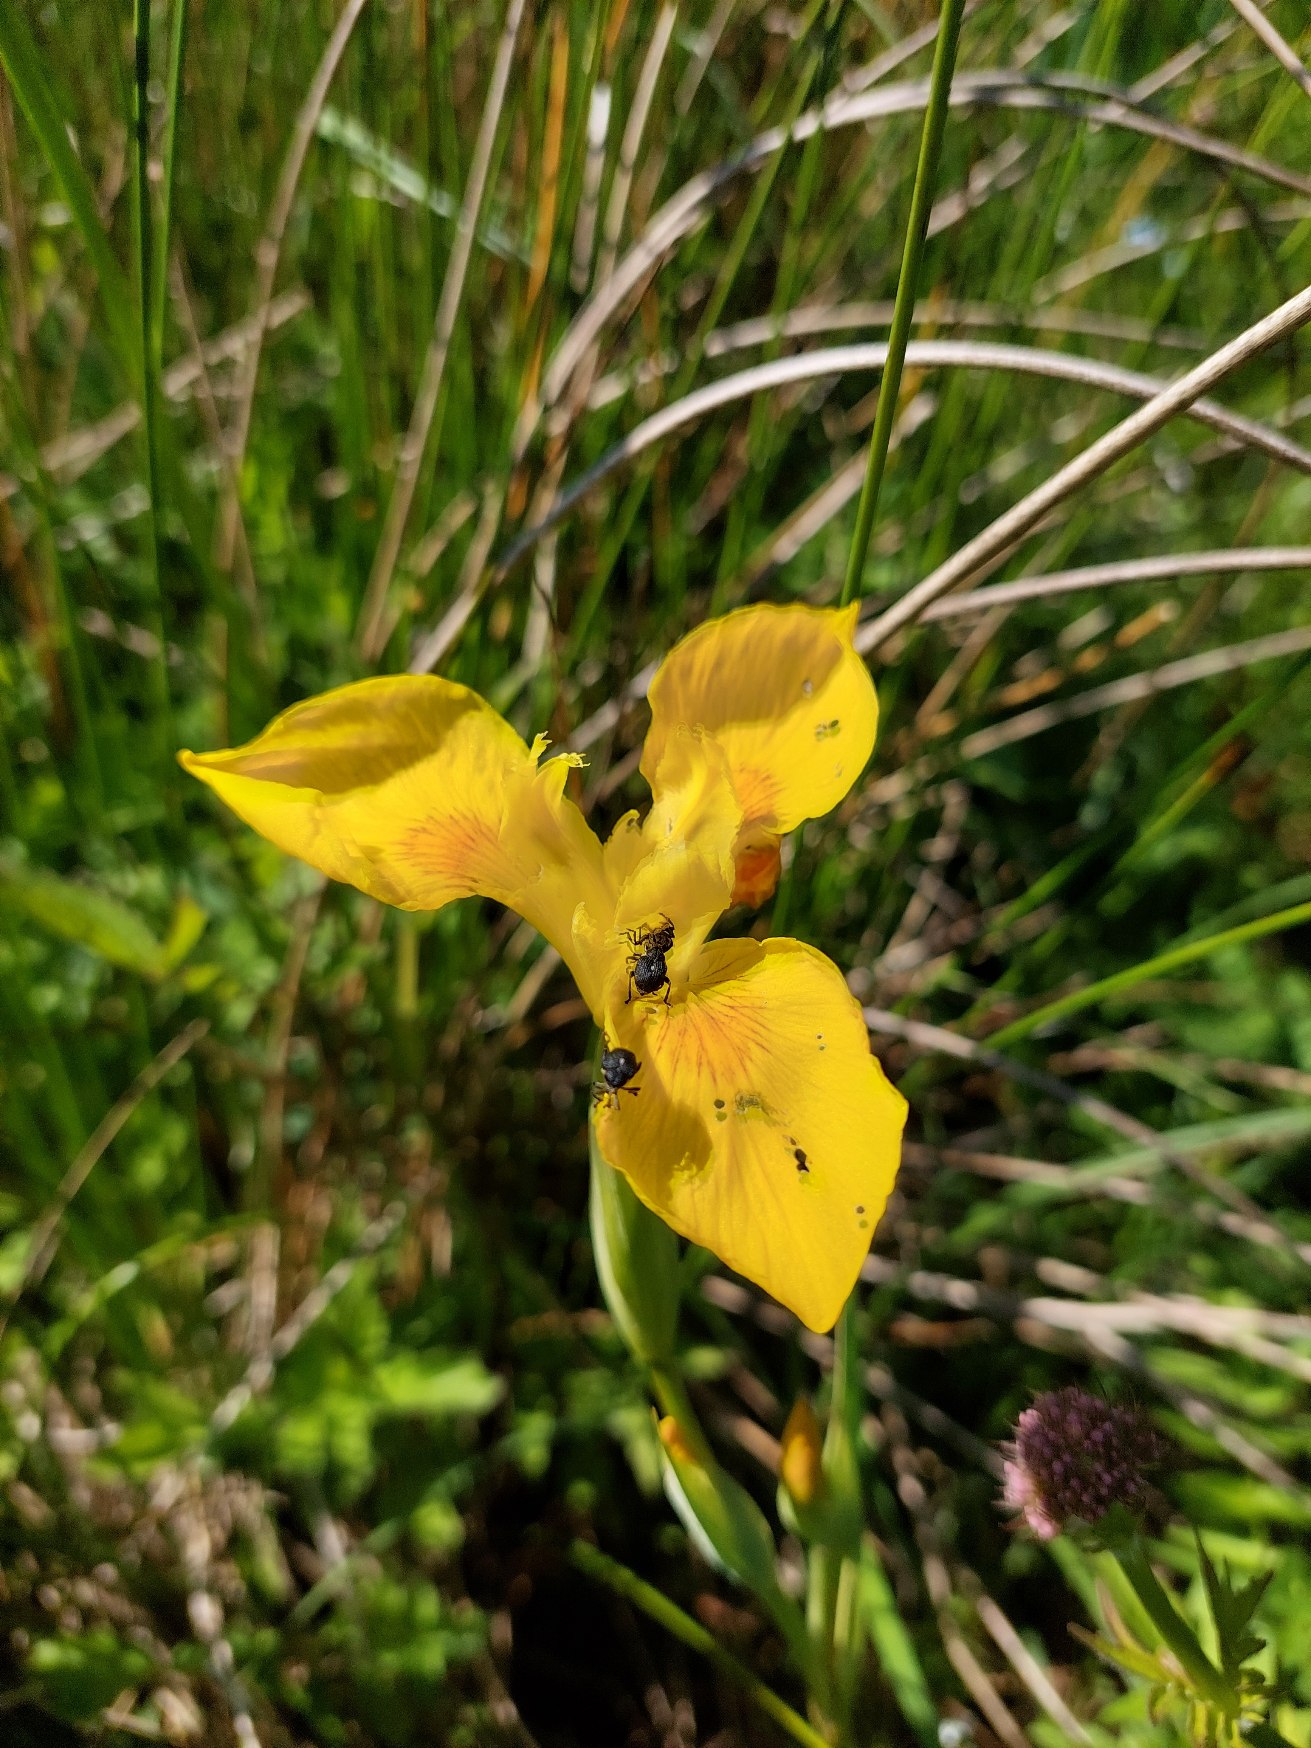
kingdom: Animalia
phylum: Arthropoda
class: Insecta
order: Coleoptera
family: Curculionidae
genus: Mononychus
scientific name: Mononychus punctumalbum
